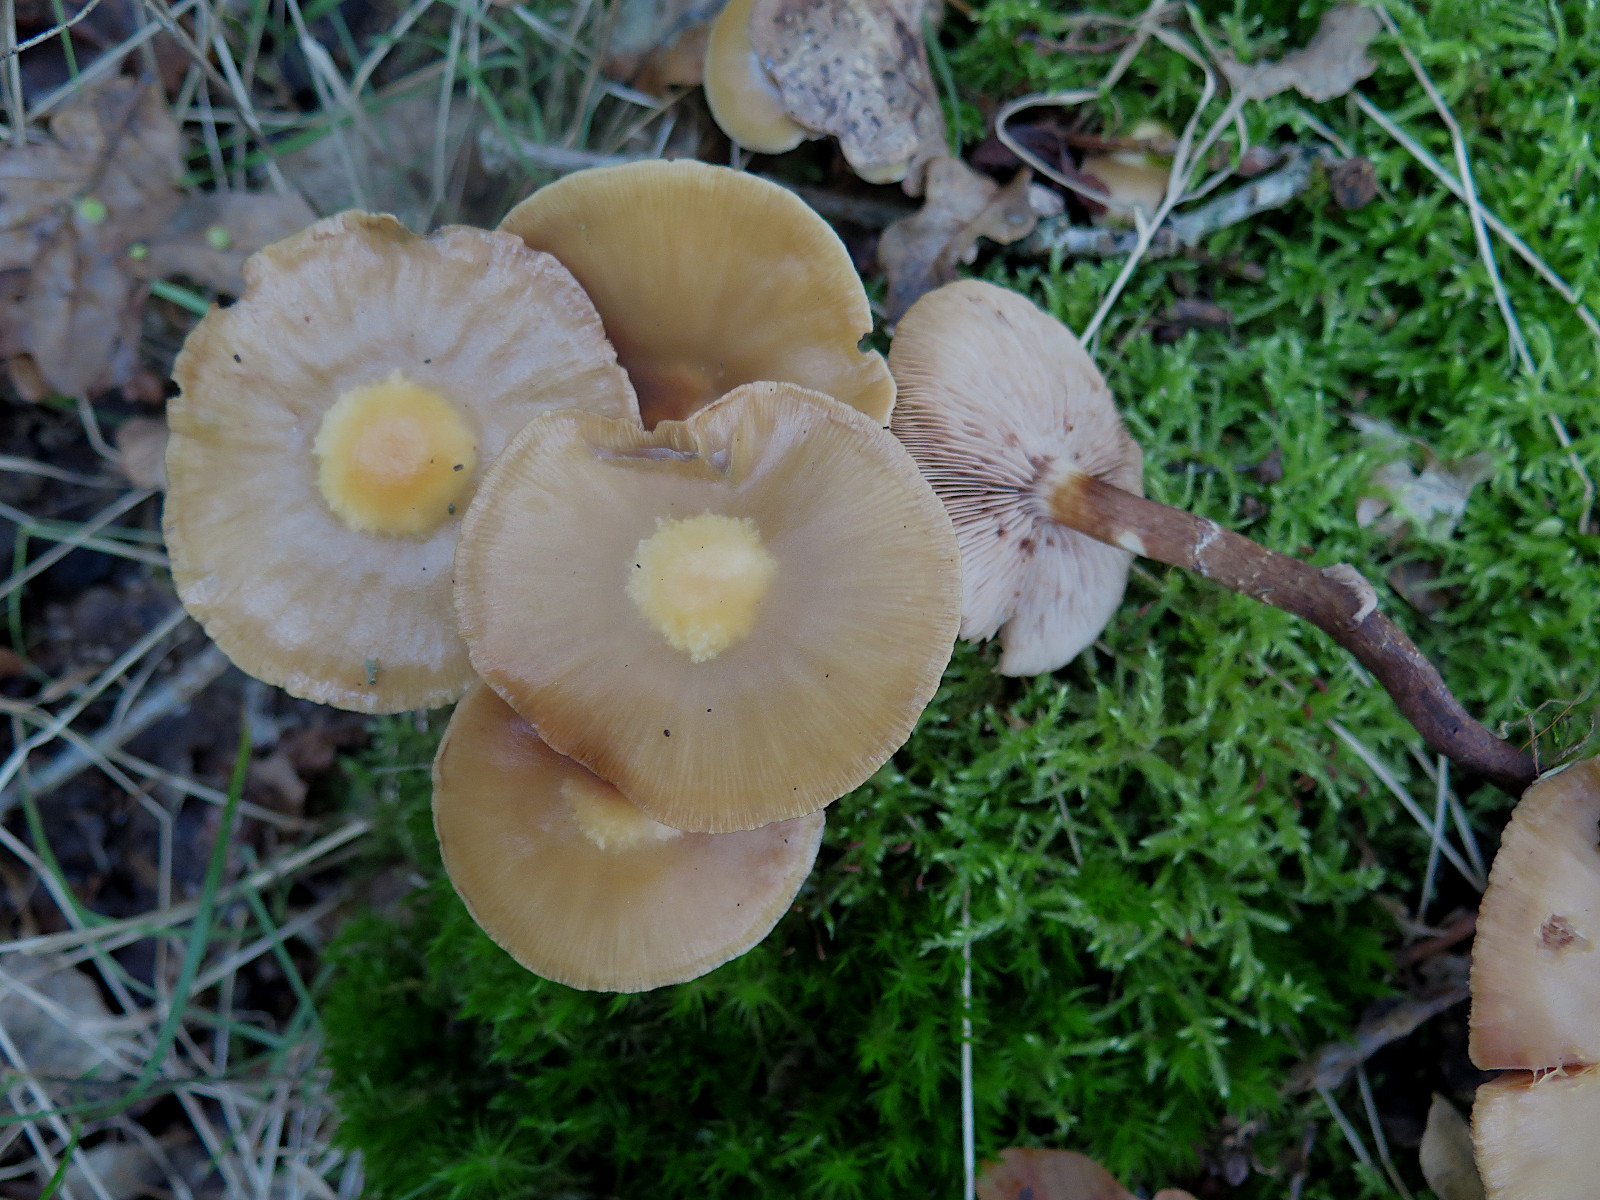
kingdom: Fungi
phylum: Basidiomycota
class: Agaricomycetes
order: Agaricales
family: Strophariaceae
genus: Kuehneromyces
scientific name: Kuehneromyces mutabilis
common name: foranderlig skælhat
